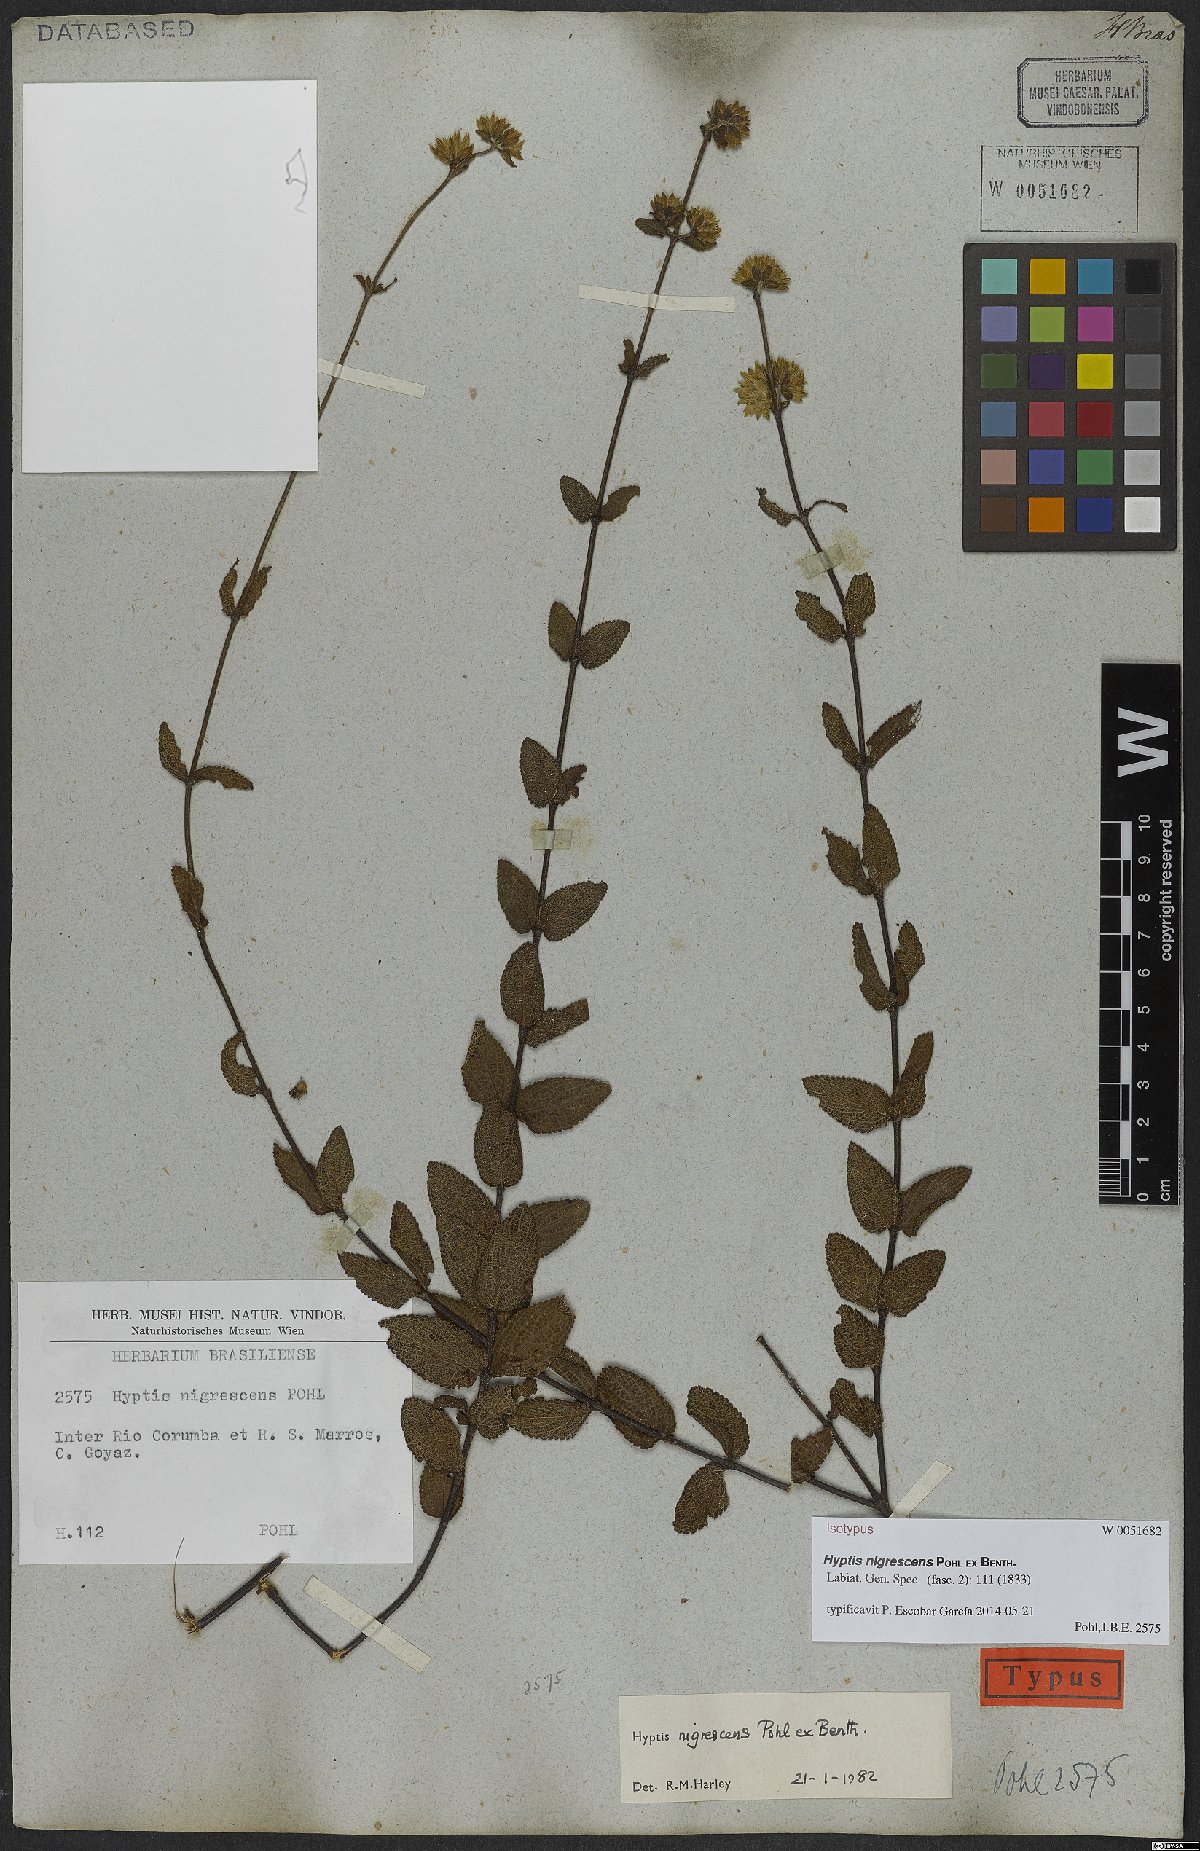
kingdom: Plantae
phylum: Tracheophyta
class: Magnoliopsida
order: Lamiales
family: Lamiaceae
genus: Hyptis
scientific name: Hyptis nigrescens
